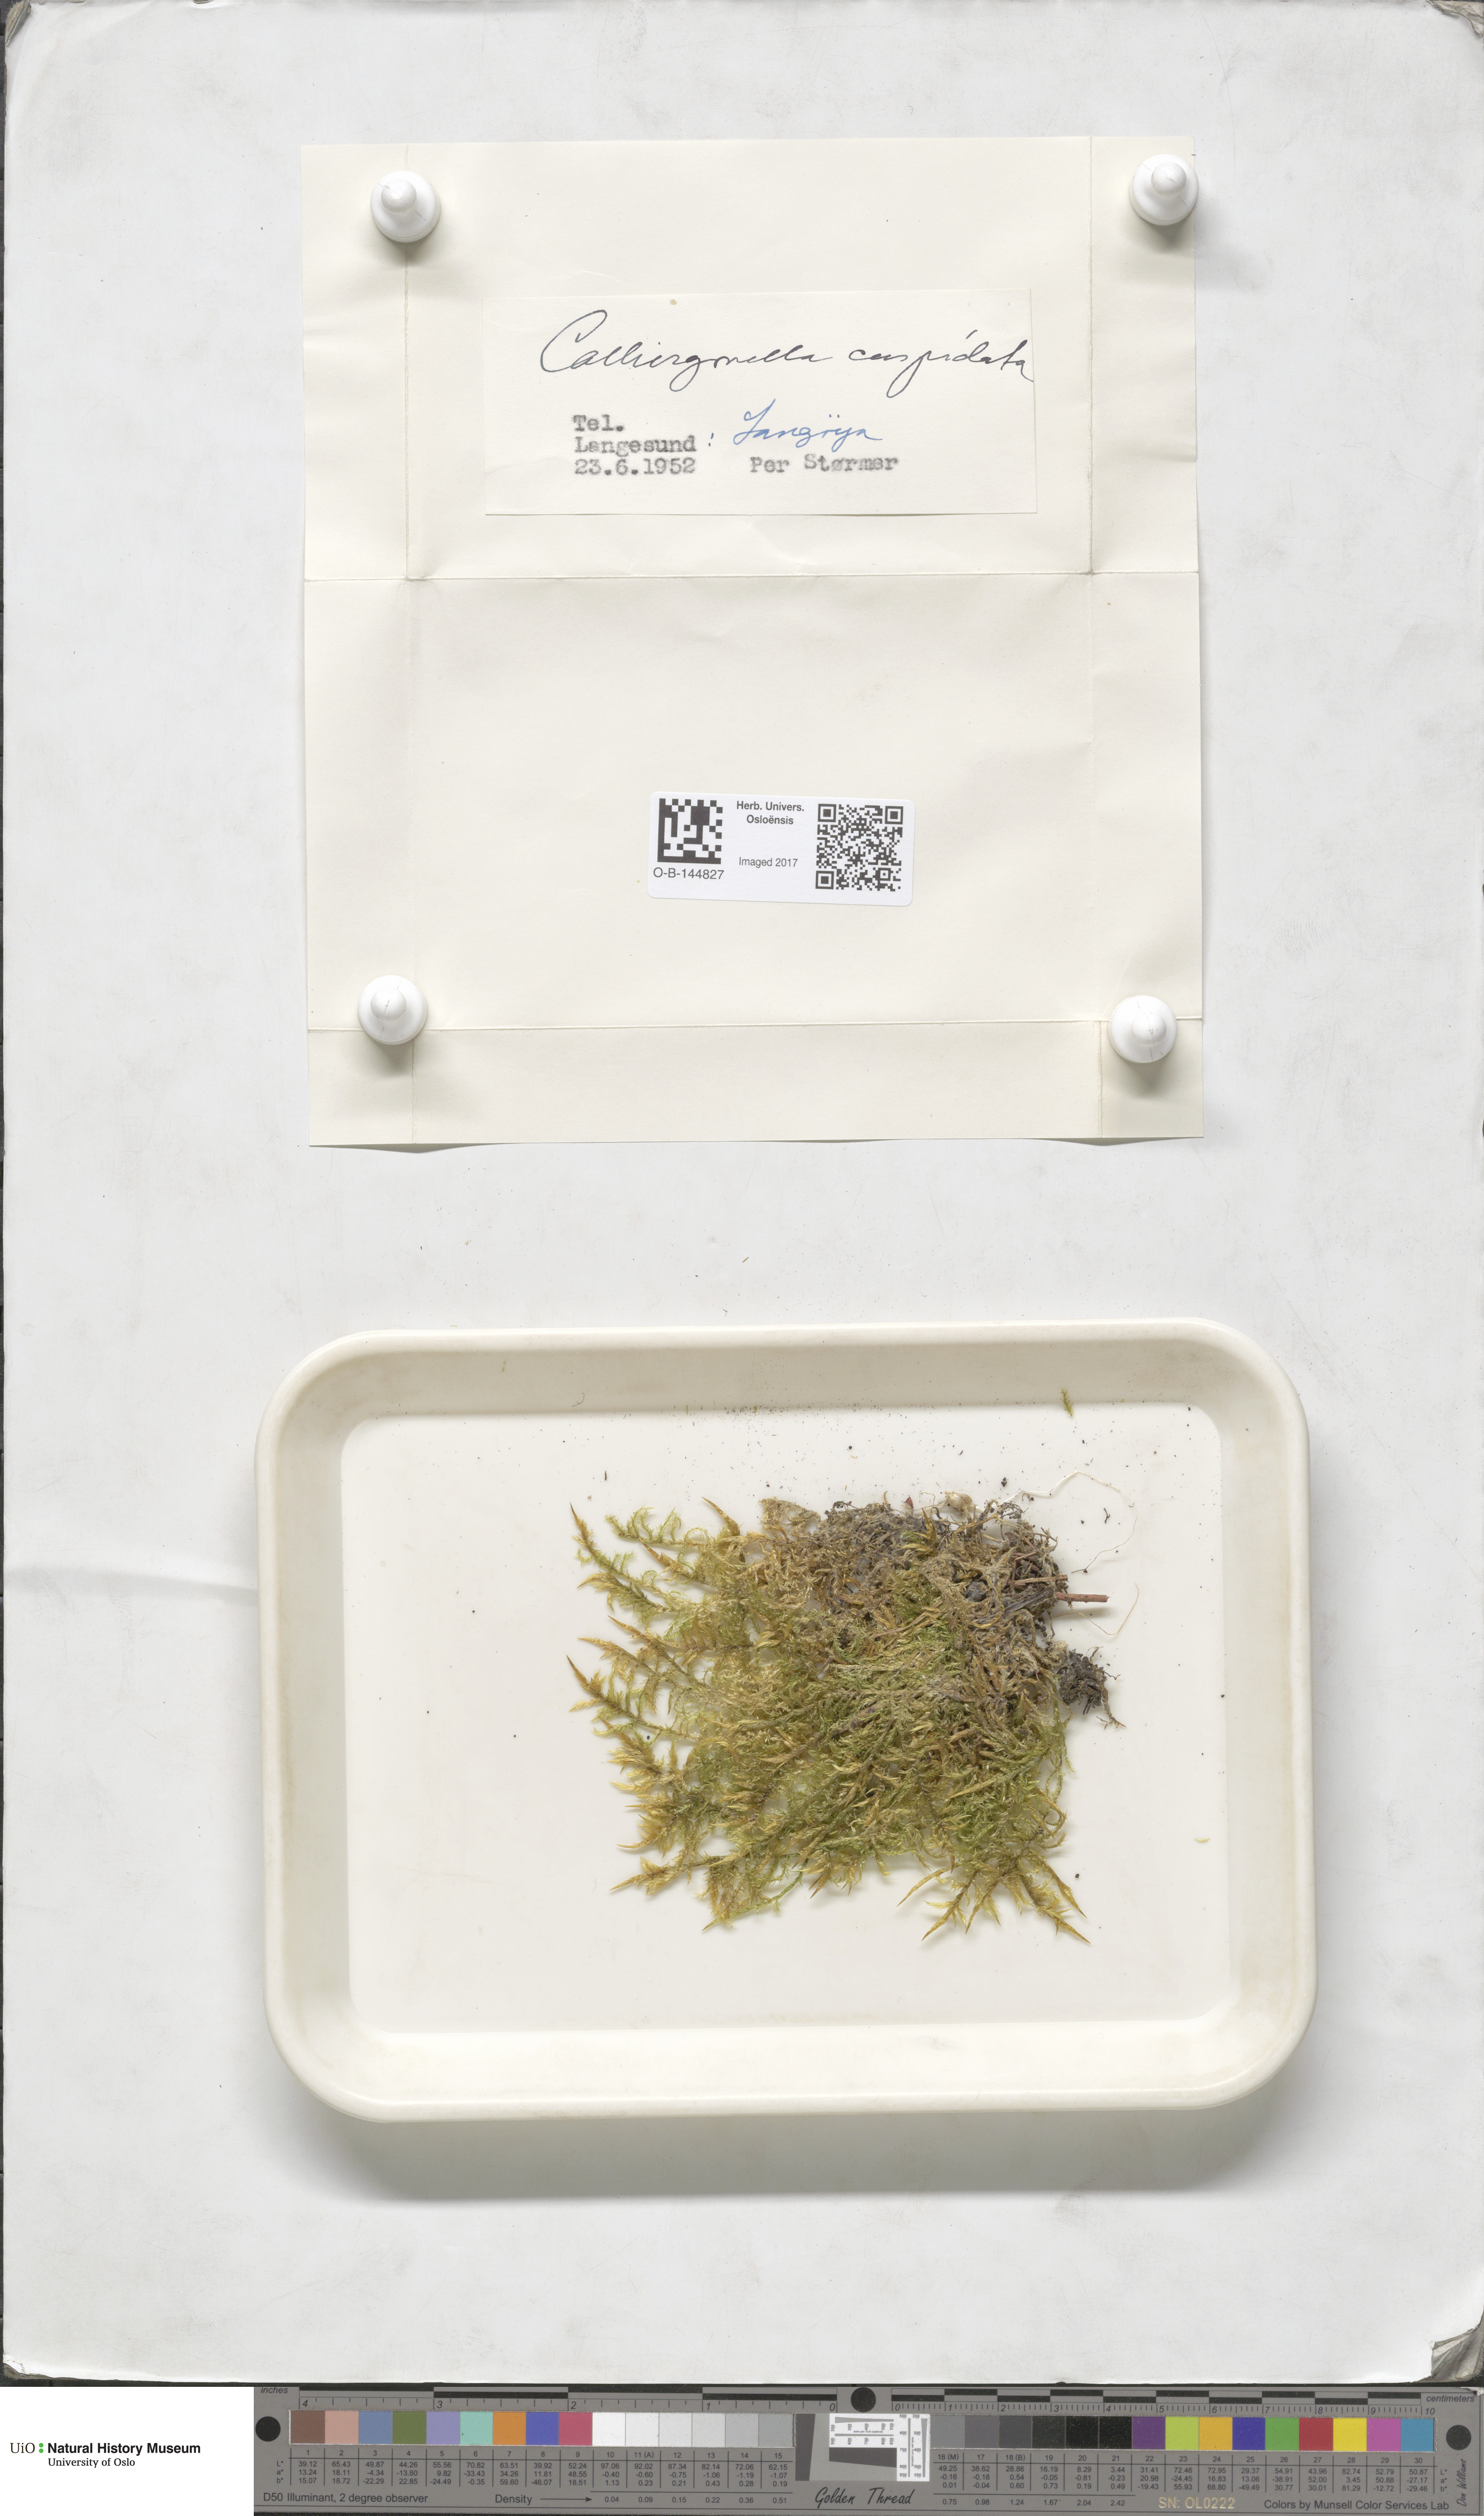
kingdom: Plantae
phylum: Bryophyta
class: Bryopsida
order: Hypnales
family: Pylaisiaceae
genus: Calliergonella
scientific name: Calliergonella cuspidata
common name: Common large wetland moss
